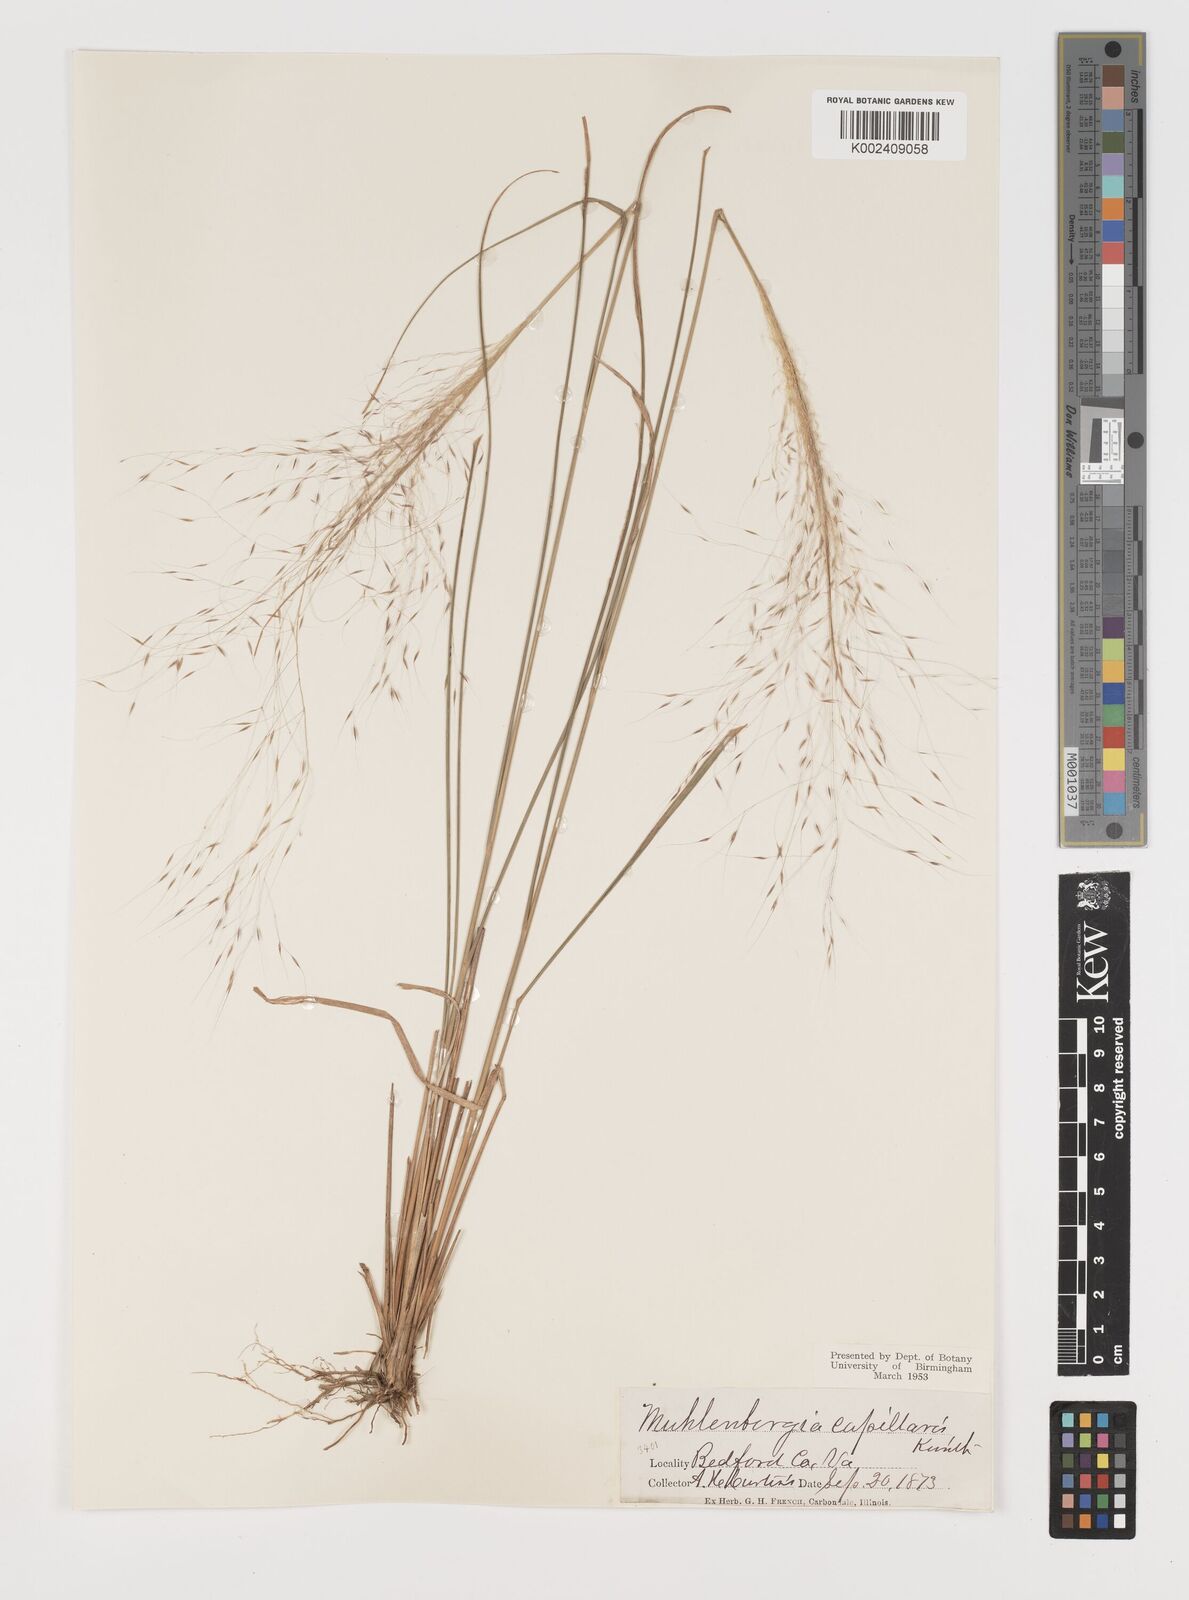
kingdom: Plantae
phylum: Tracheophyta
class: Liliopsida
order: Poales
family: Poaceae
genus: Muhlenbergia
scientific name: Muhlenbergia capillaris
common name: Purple grass
